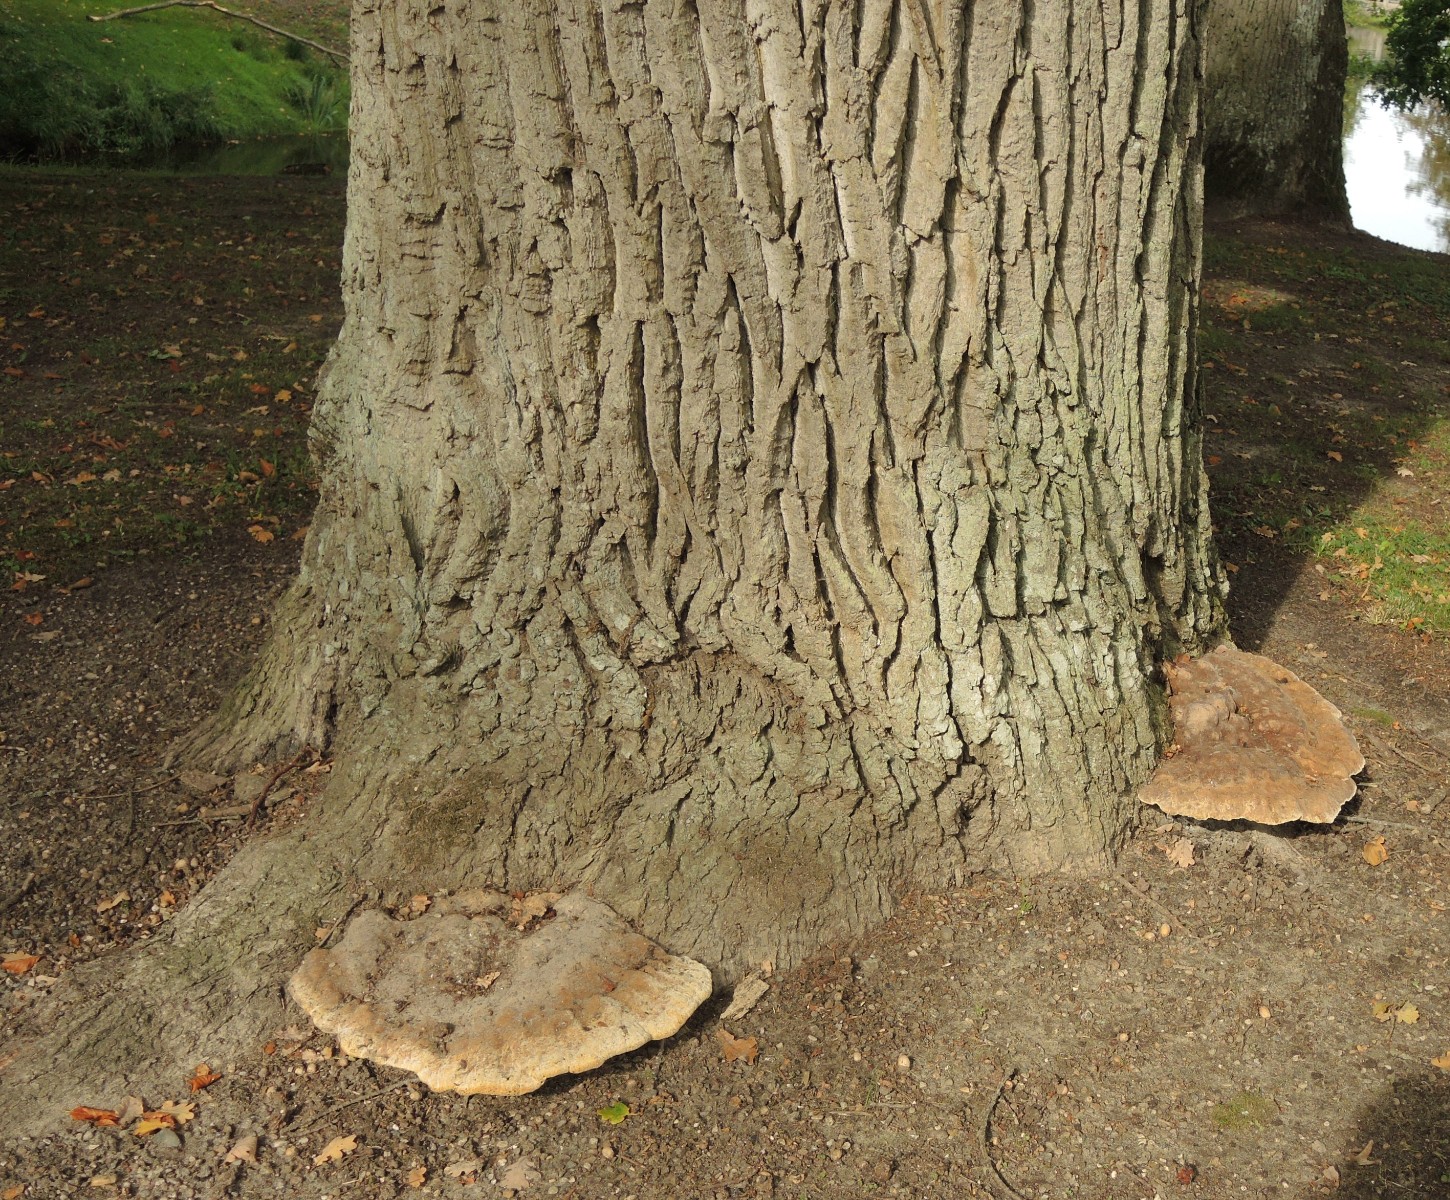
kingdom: Fungi
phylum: Basidiomycota
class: Agaricomycetes
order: Hymenochaetales
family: Hymenochaetaceae
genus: Pseudoinonotus
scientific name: Pseudoinonotus dryadeus
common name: ege-spejlporesvamp
